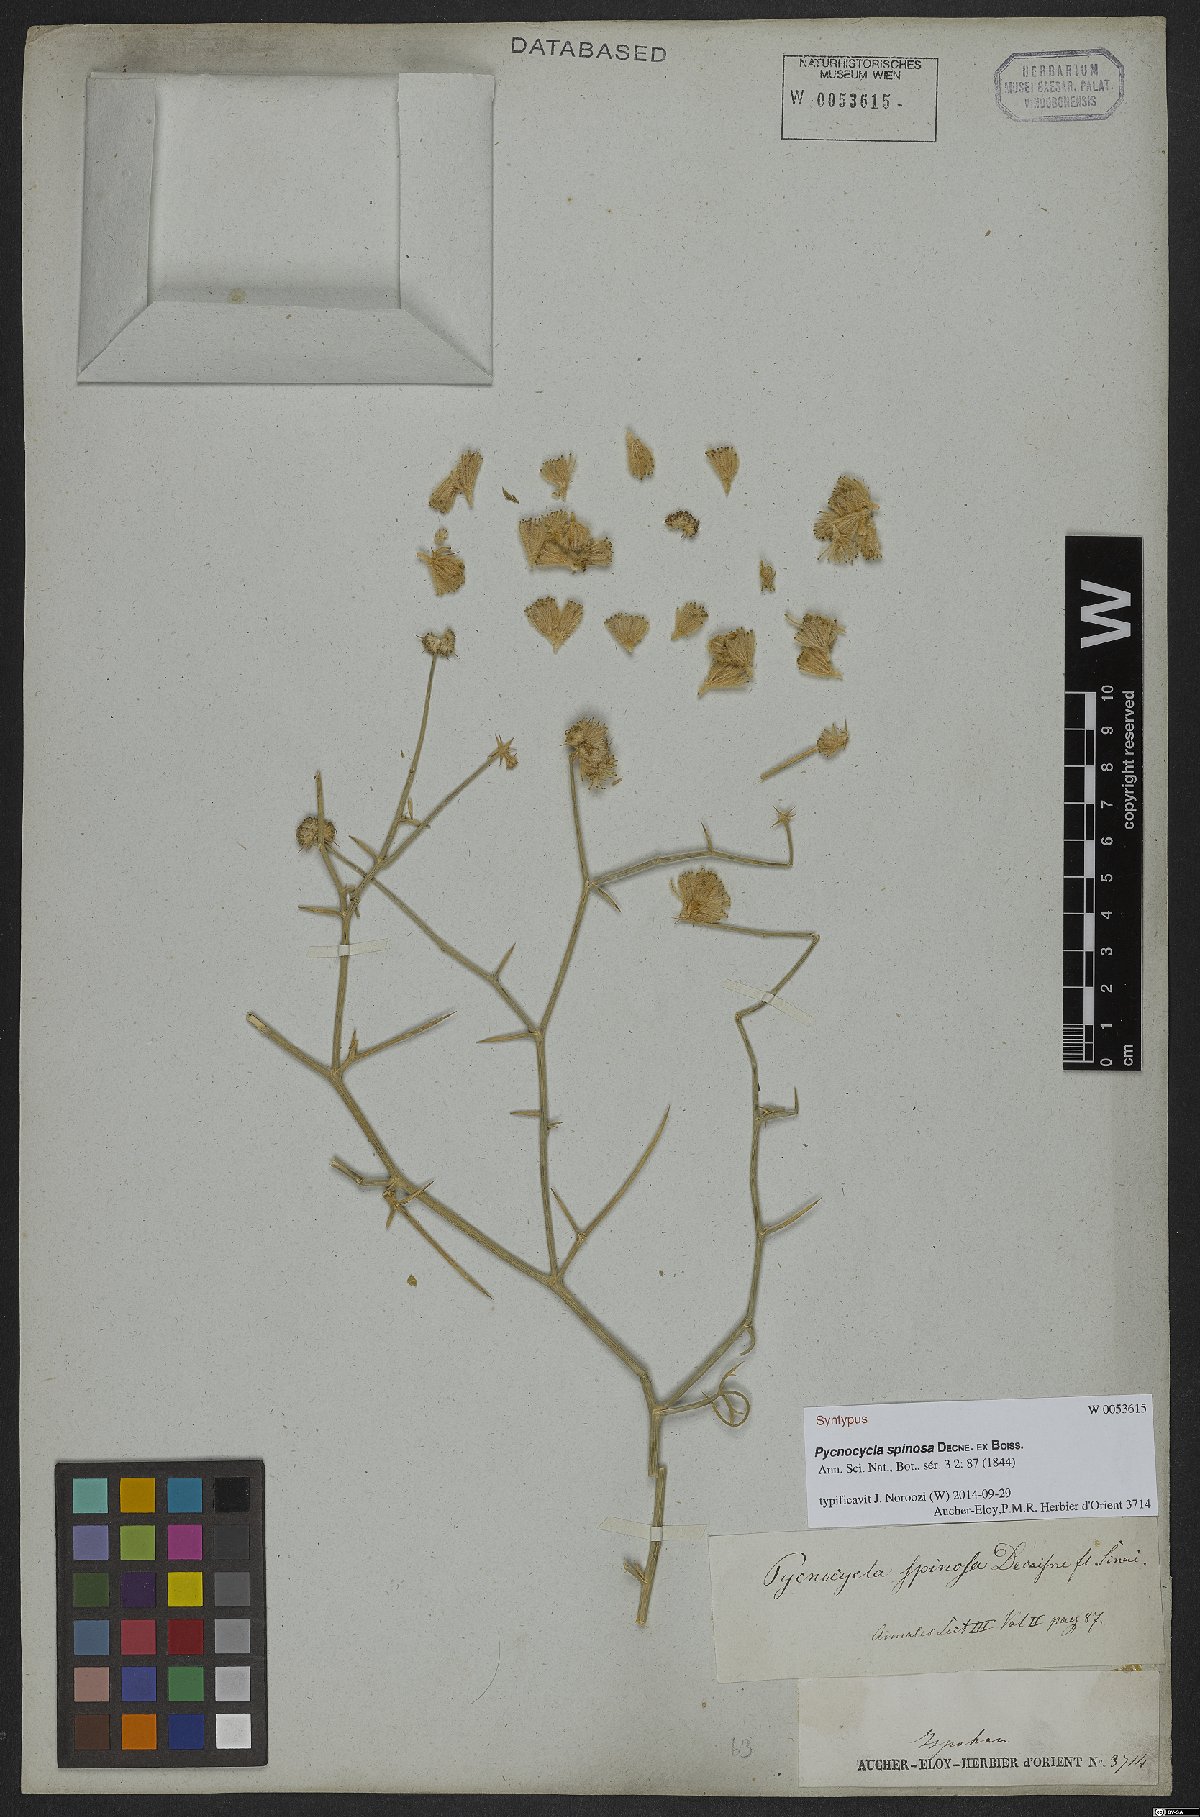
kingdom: Plantae
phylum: Tracheophyta
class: Magnoliopsida
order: Apiales
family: Apiaceae
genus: Pycnocycla
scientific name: Pycnocycla spinosa
